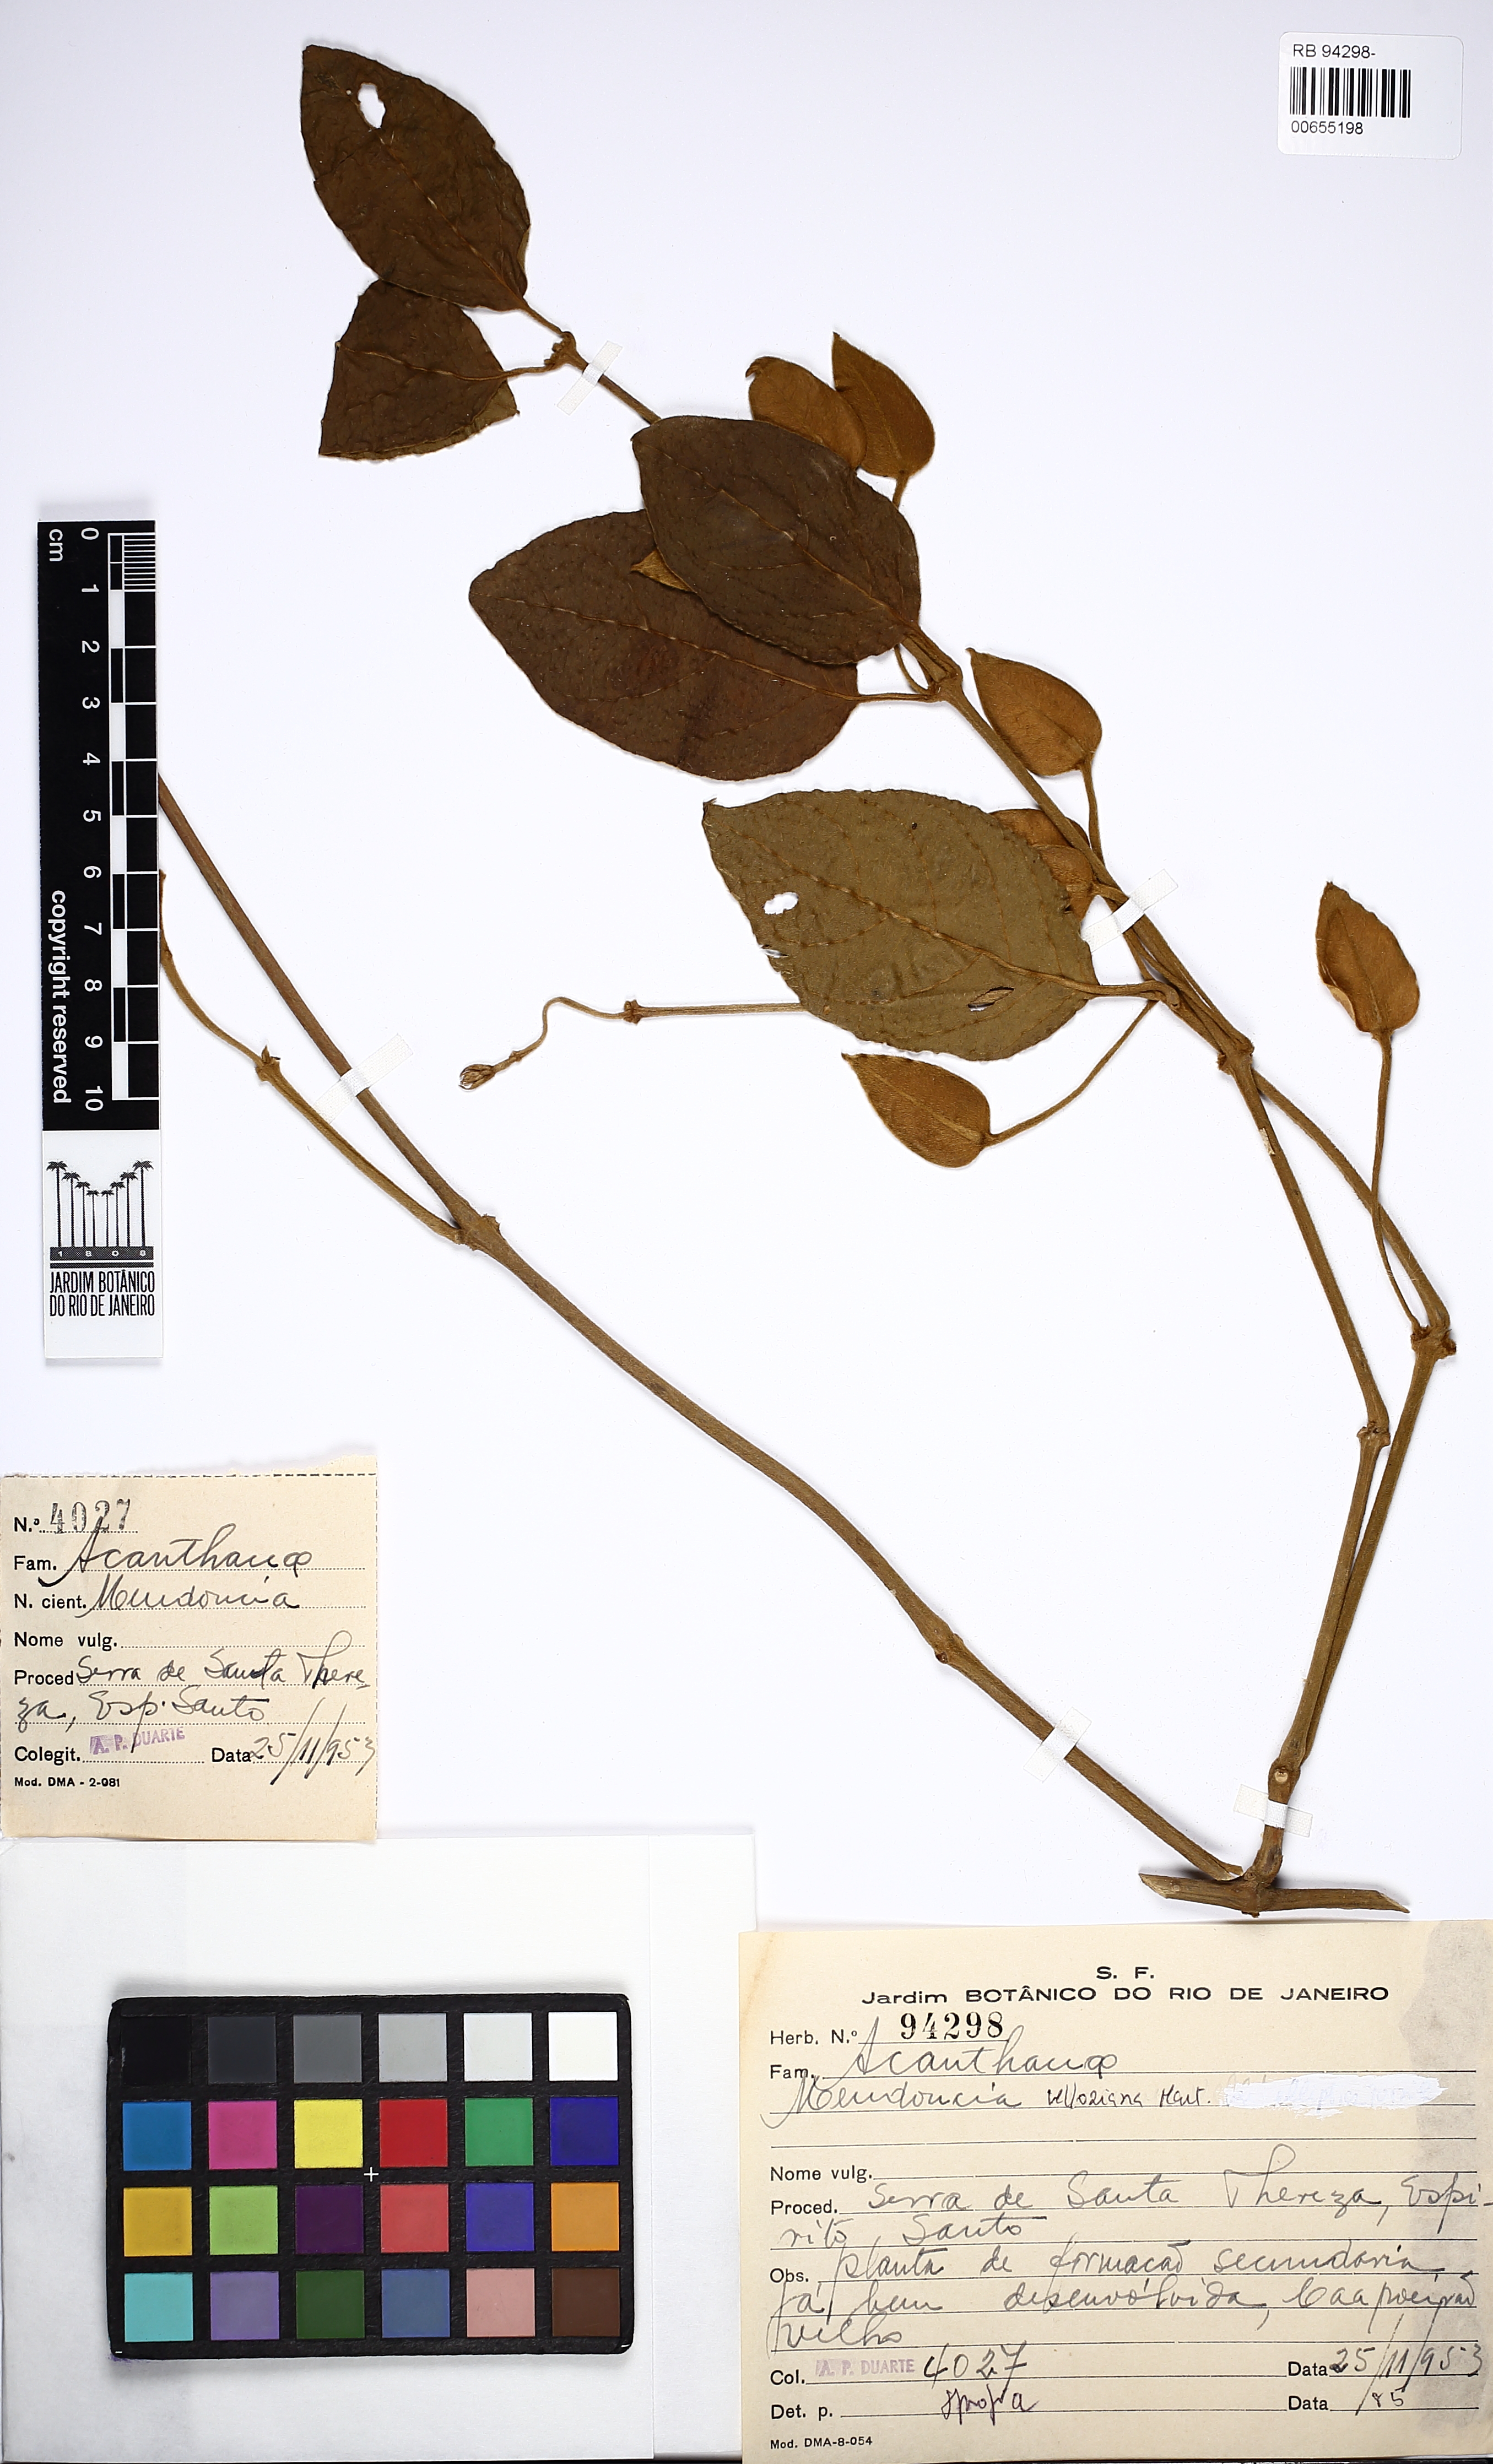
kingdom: Plantae
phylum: Tracheophyta
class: Magnoliopsida
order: Lamiales
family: Acanthaceae
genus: Mendoncia
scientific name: Mendoncia velloziana
